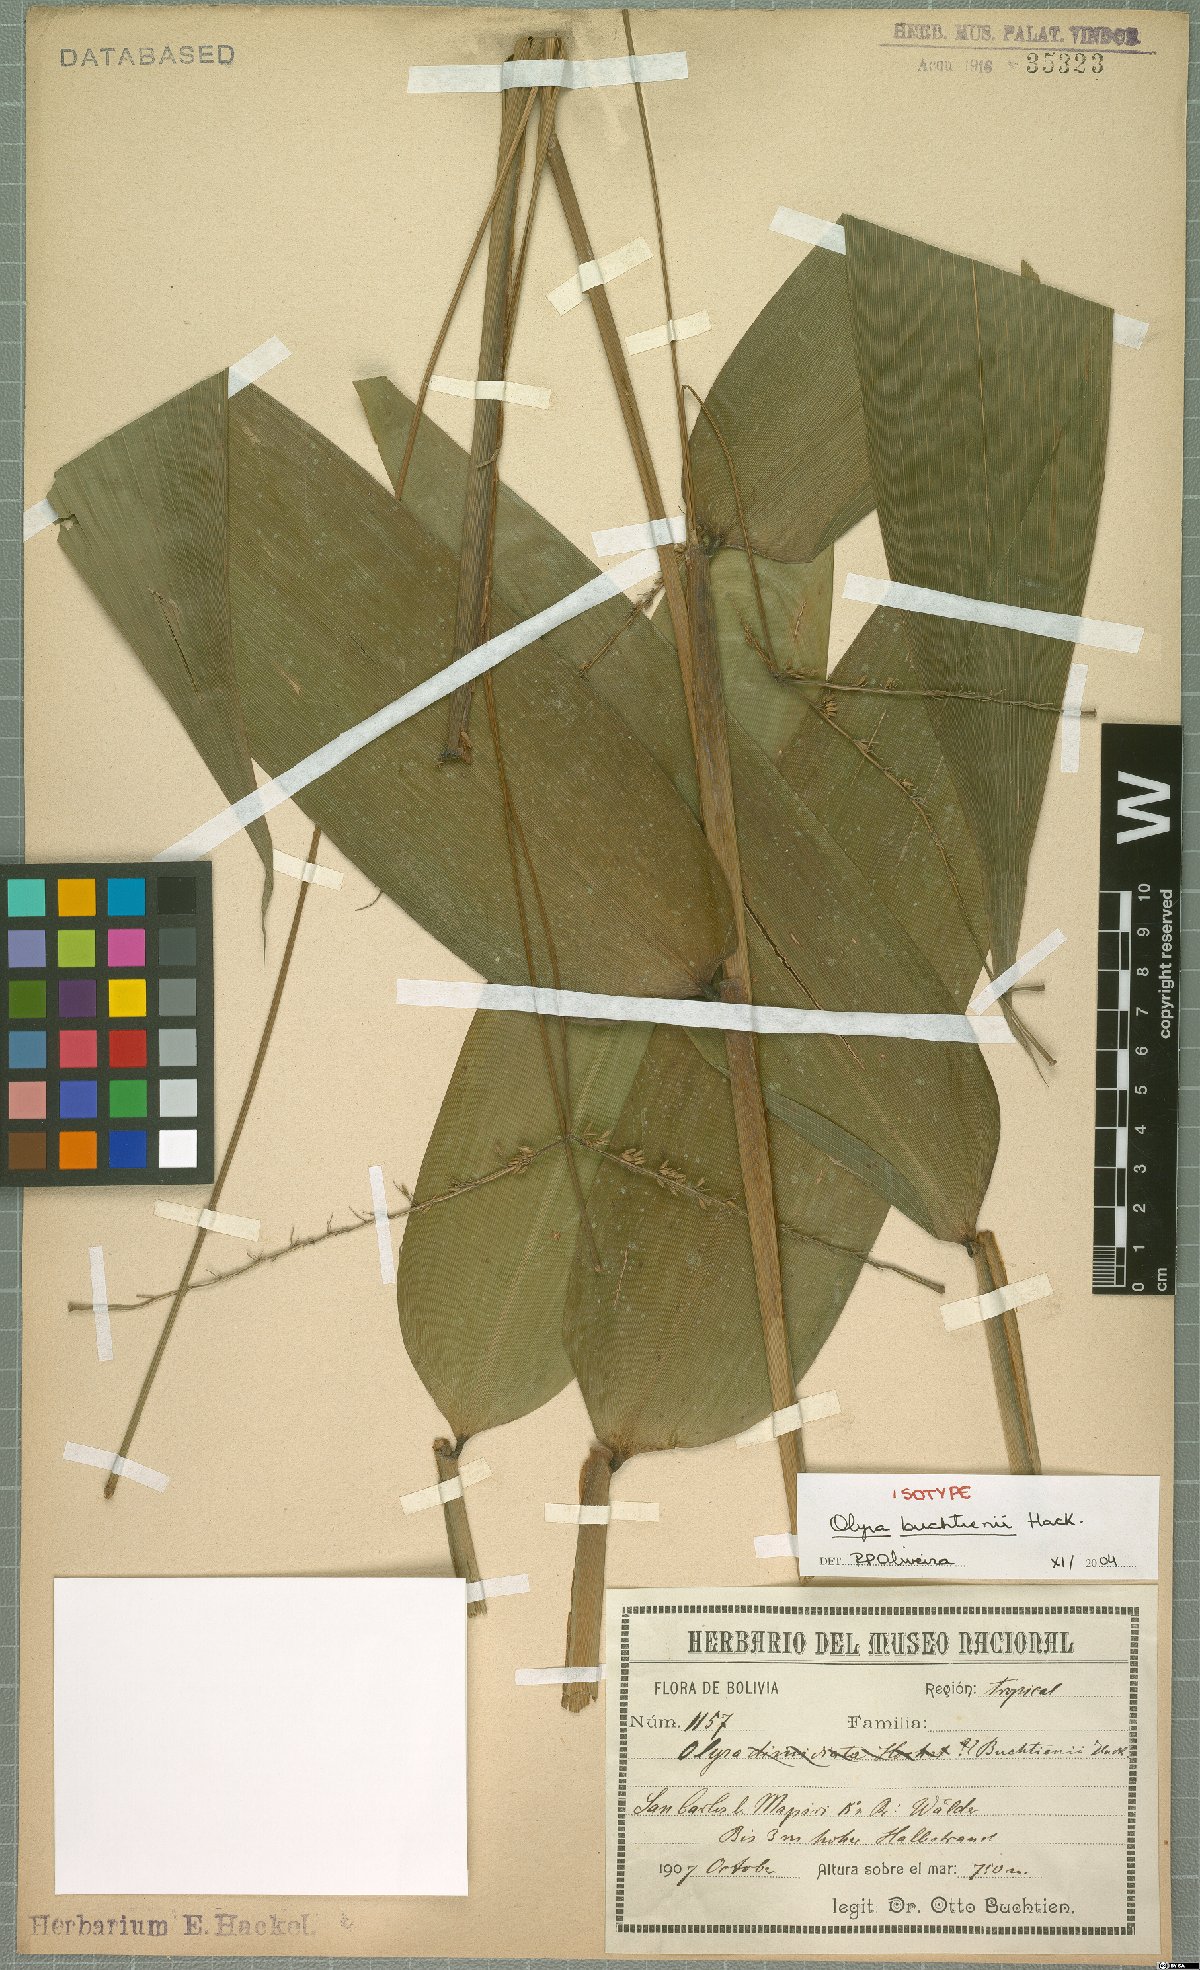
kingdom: Plantae
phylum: Tracheophyta
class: Liliopsida
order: Poales
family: Poaceae
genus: Olyra
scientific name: Olyra buchtienii
